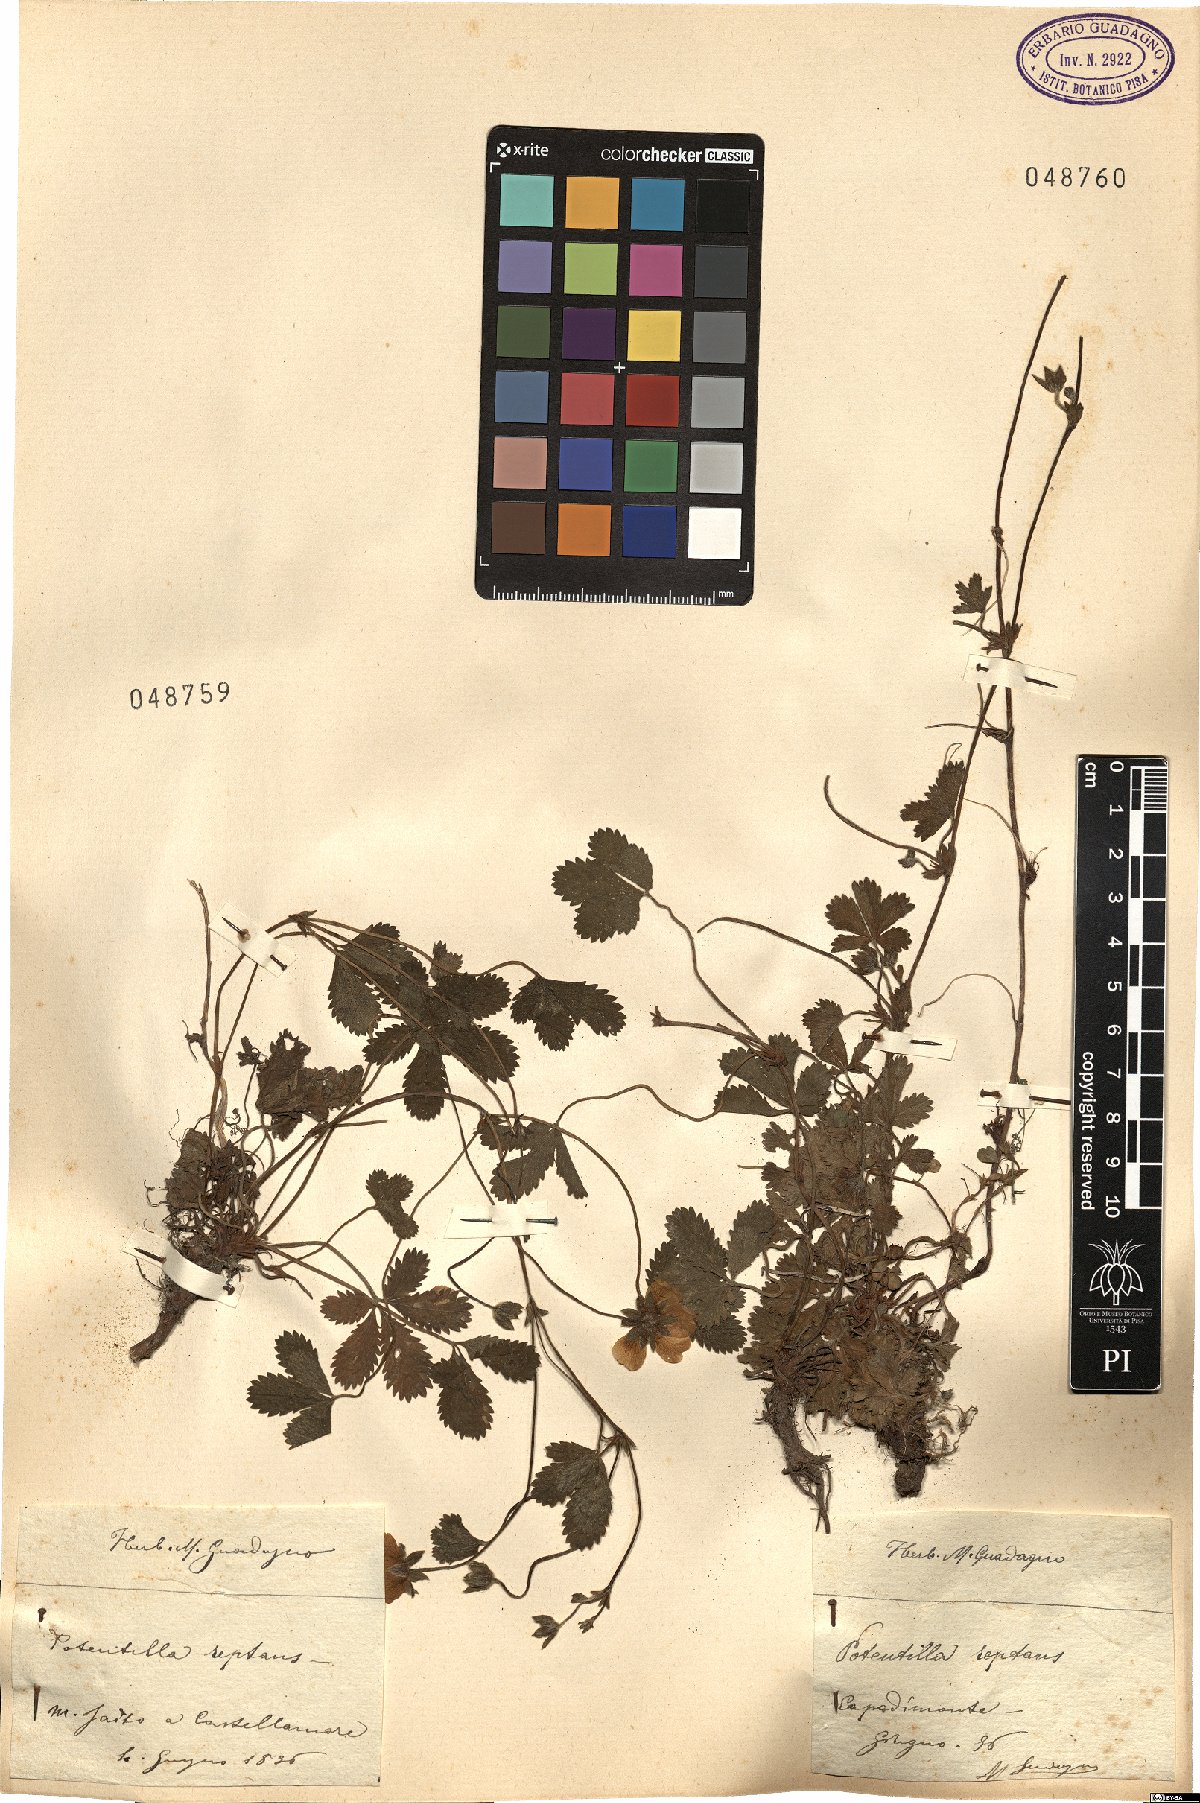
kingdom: Plantae
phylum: Tracheophyta
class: Magnoliopsida
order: Rosales
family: Rosaceae
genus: Potentilla
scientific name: Potentilla reptans
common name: Creeping cinquefoil
